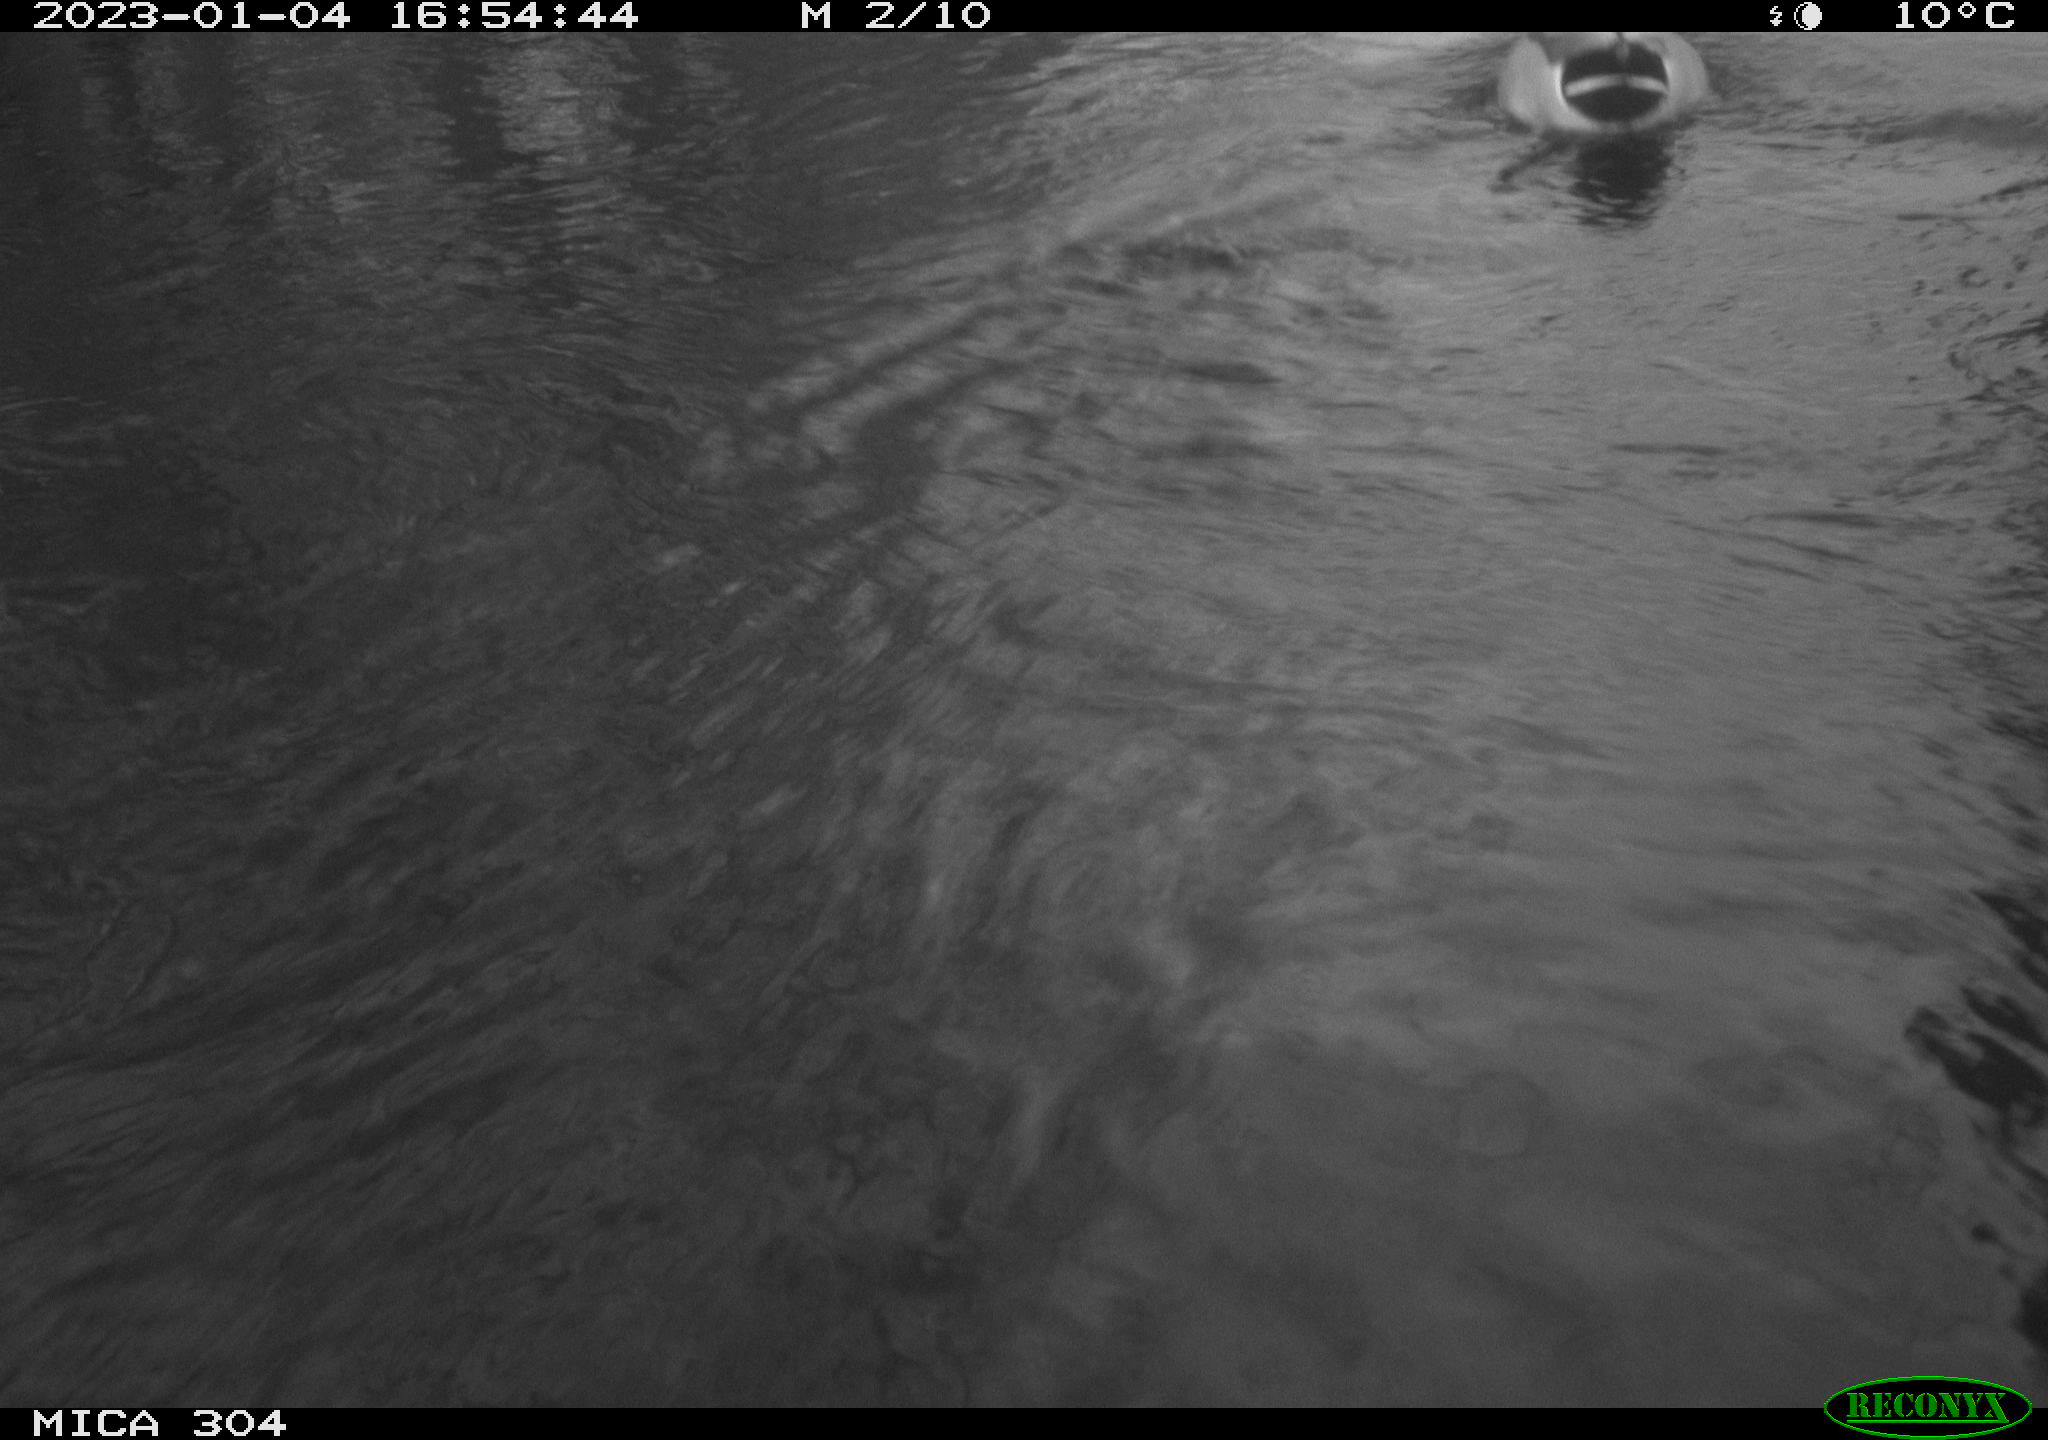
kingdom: Animalia
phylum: Chordata
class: Aves
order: Anseriformes
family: Anatidae
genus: Anas
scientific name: Anas
